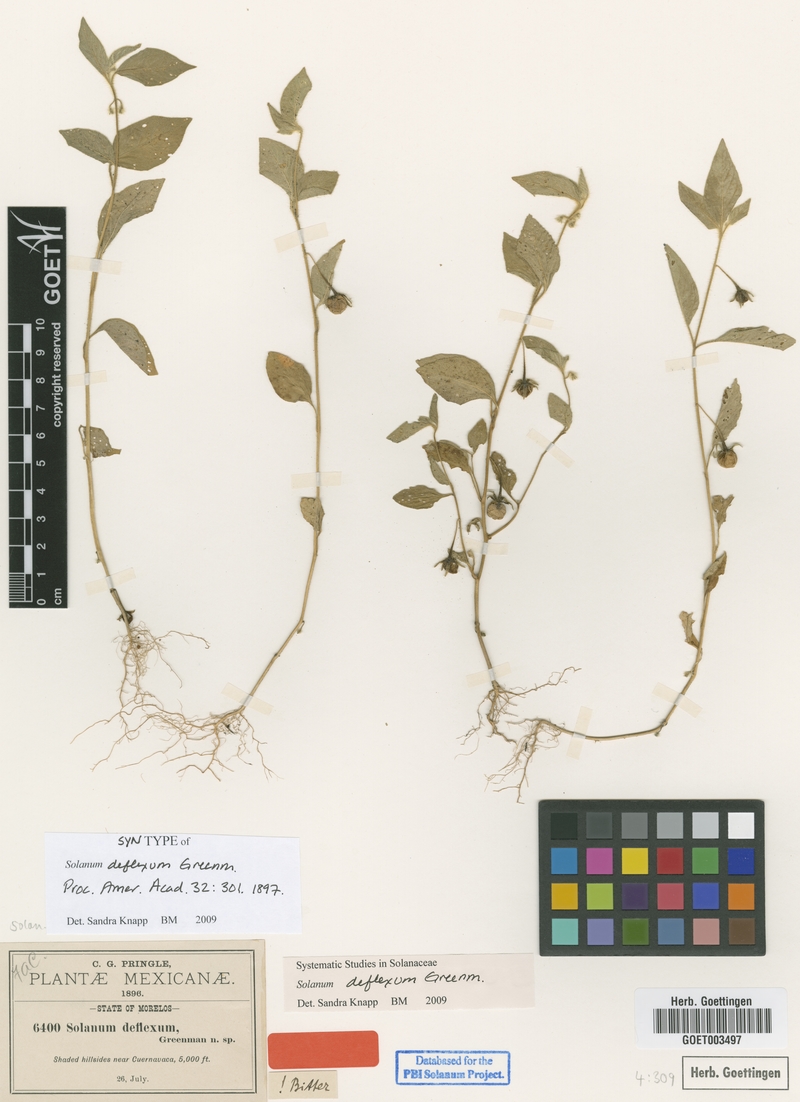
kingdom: Plantae
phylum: Tracheophyta
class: Magnoliopsida
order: Solanales
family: Solanaceae
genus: Solanum
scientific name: Solanum deflexum
